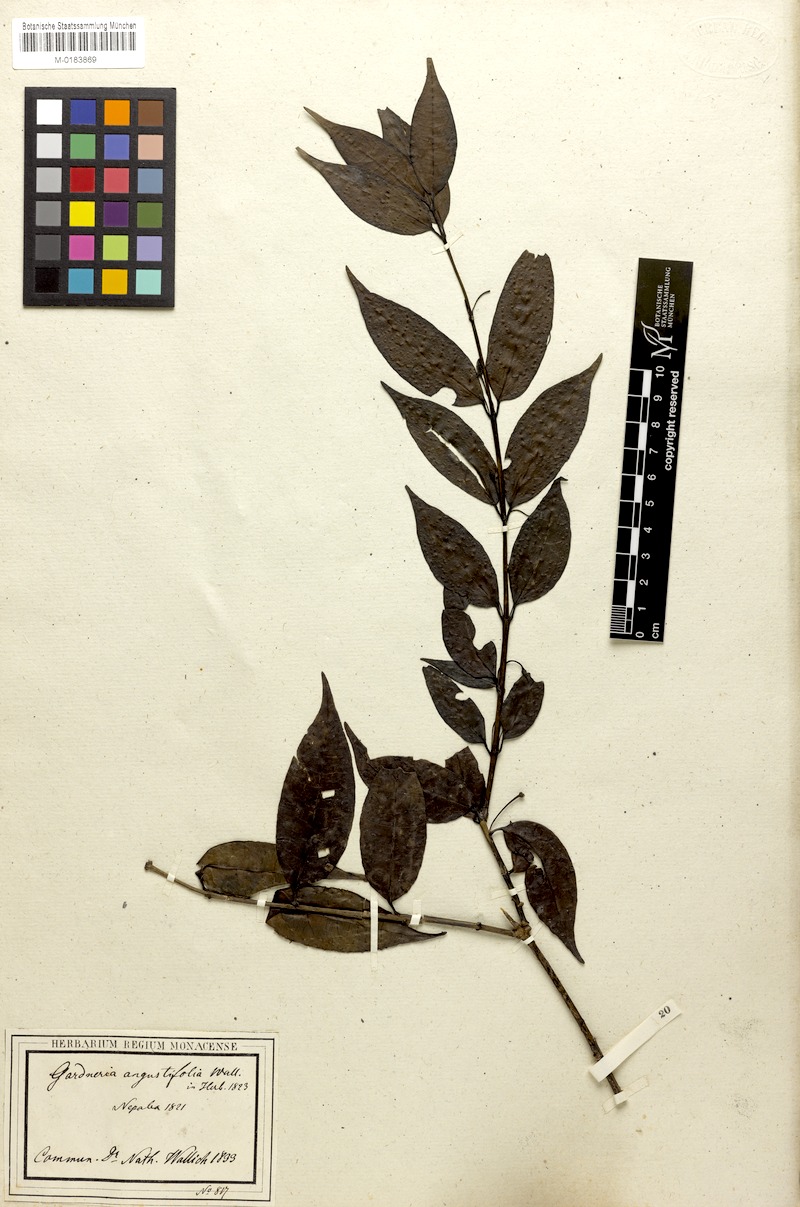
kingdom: Plantae
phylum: Tracheophyta
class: Magnoliopsida
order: Gentianales
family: Loganiaceae
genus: Gardneria
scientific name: Gardneria angustifolia
